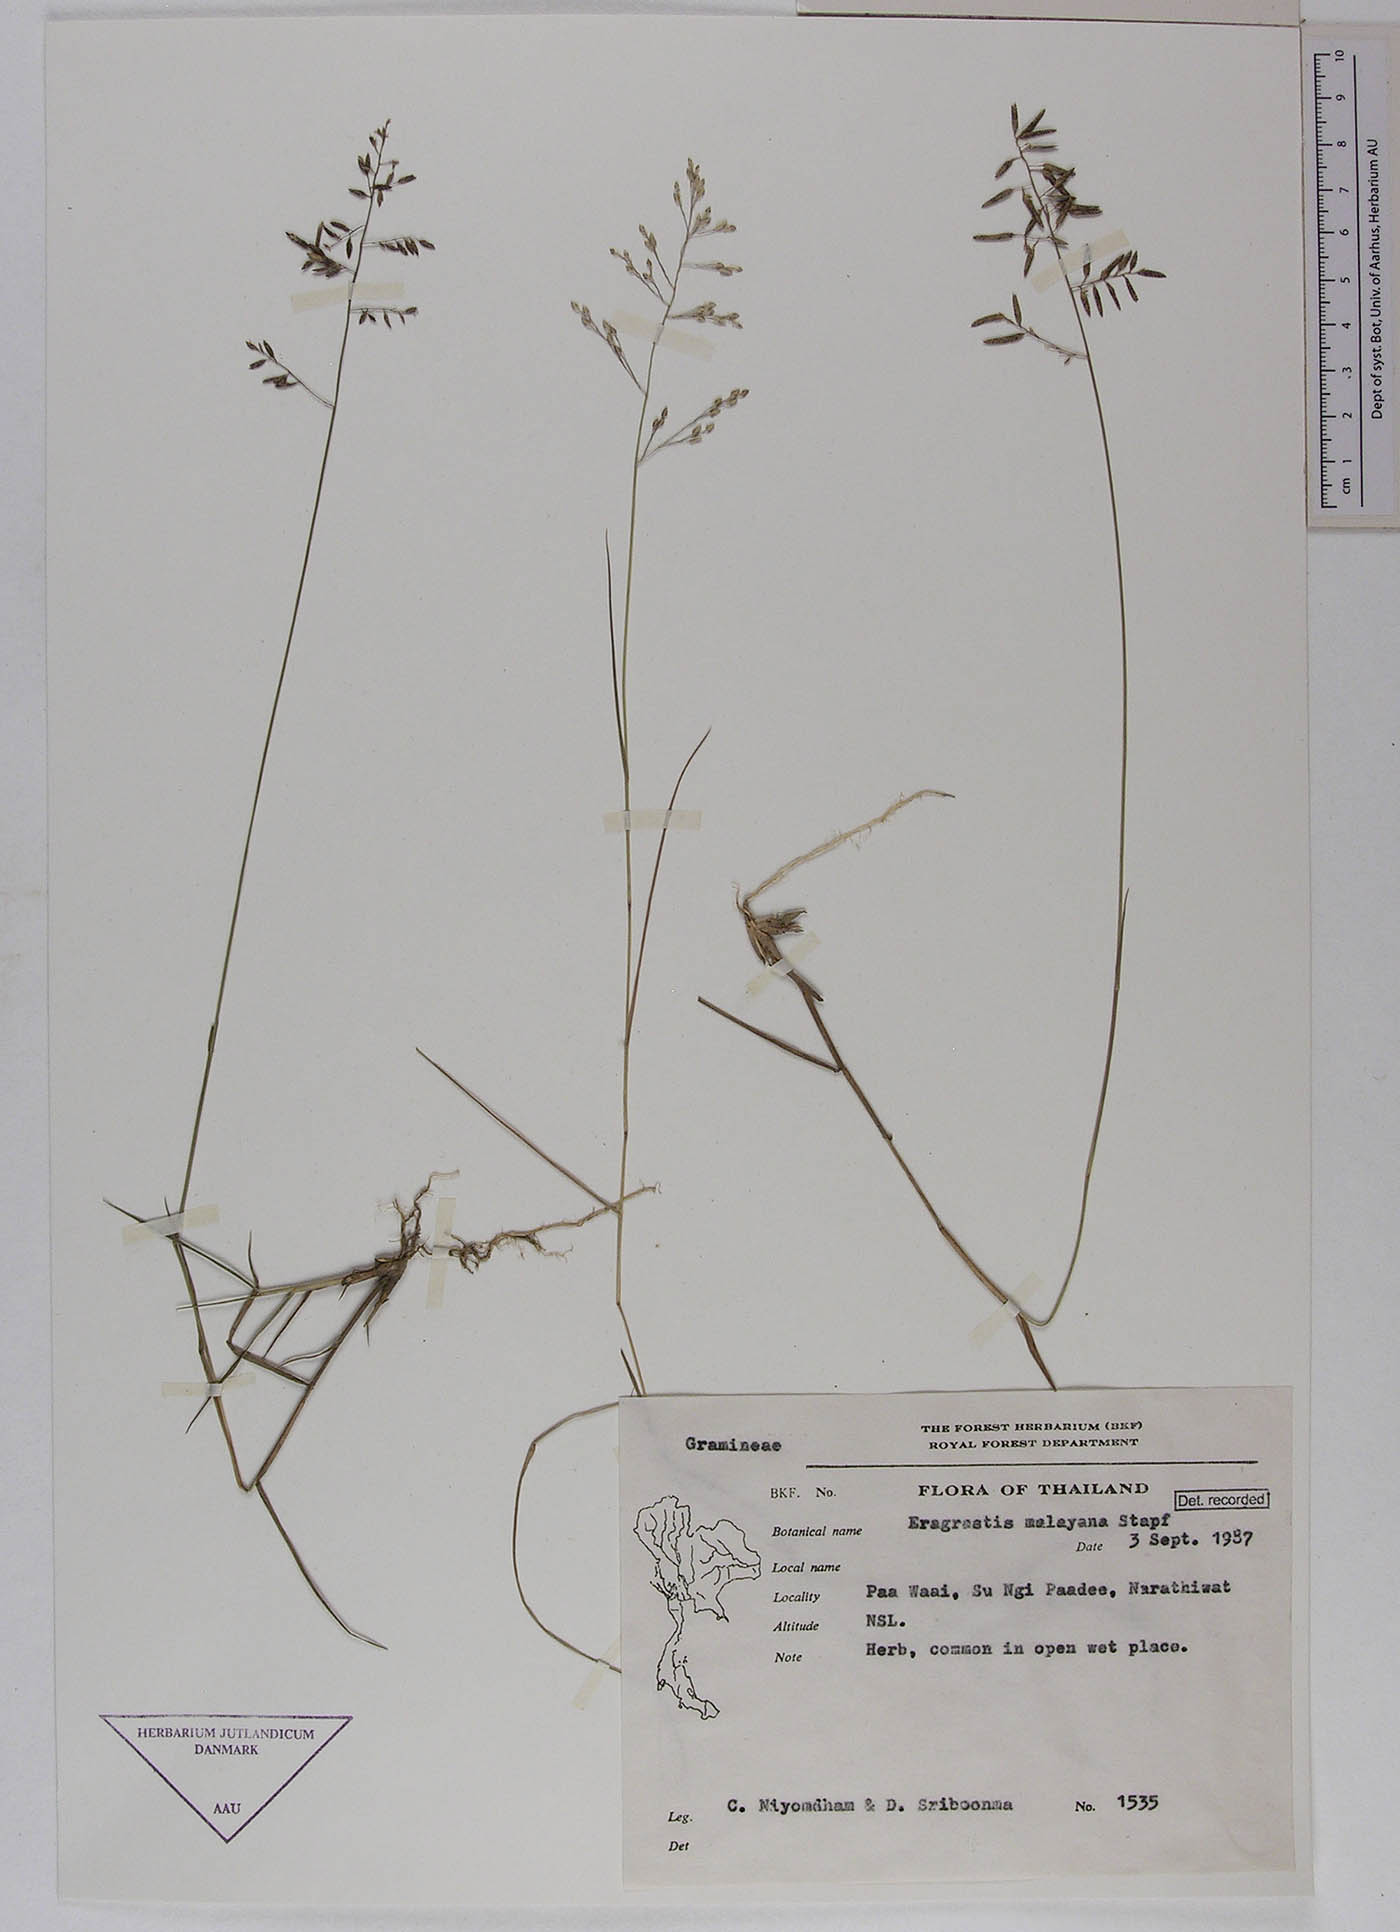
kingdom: Plantae
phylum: Tracheophyta
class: Liliopsida
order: Poales
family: Poaceae
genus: Eragrostis
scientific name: Eragrostis montana
